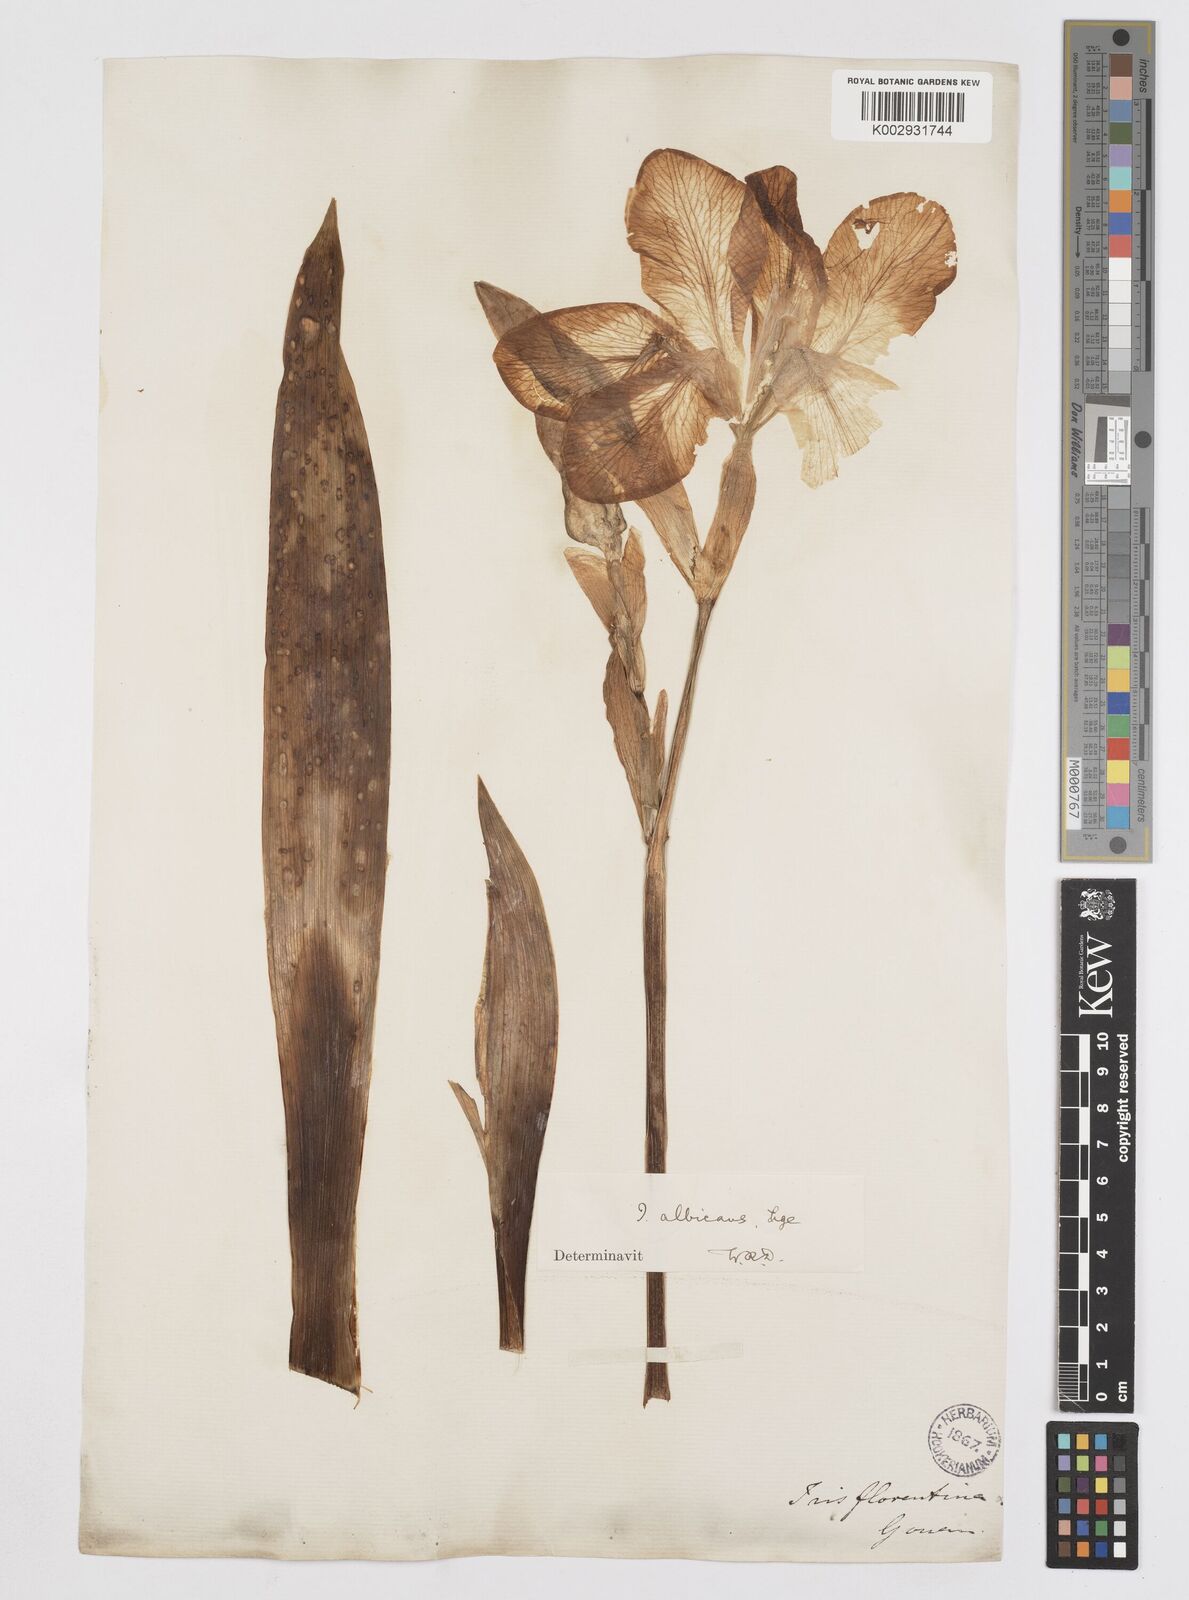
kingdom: Plantae
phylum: Tracheophyta
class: Liliopsida
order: Asparagales
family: Iridaceae
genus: Iris
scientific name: Iris florentina
